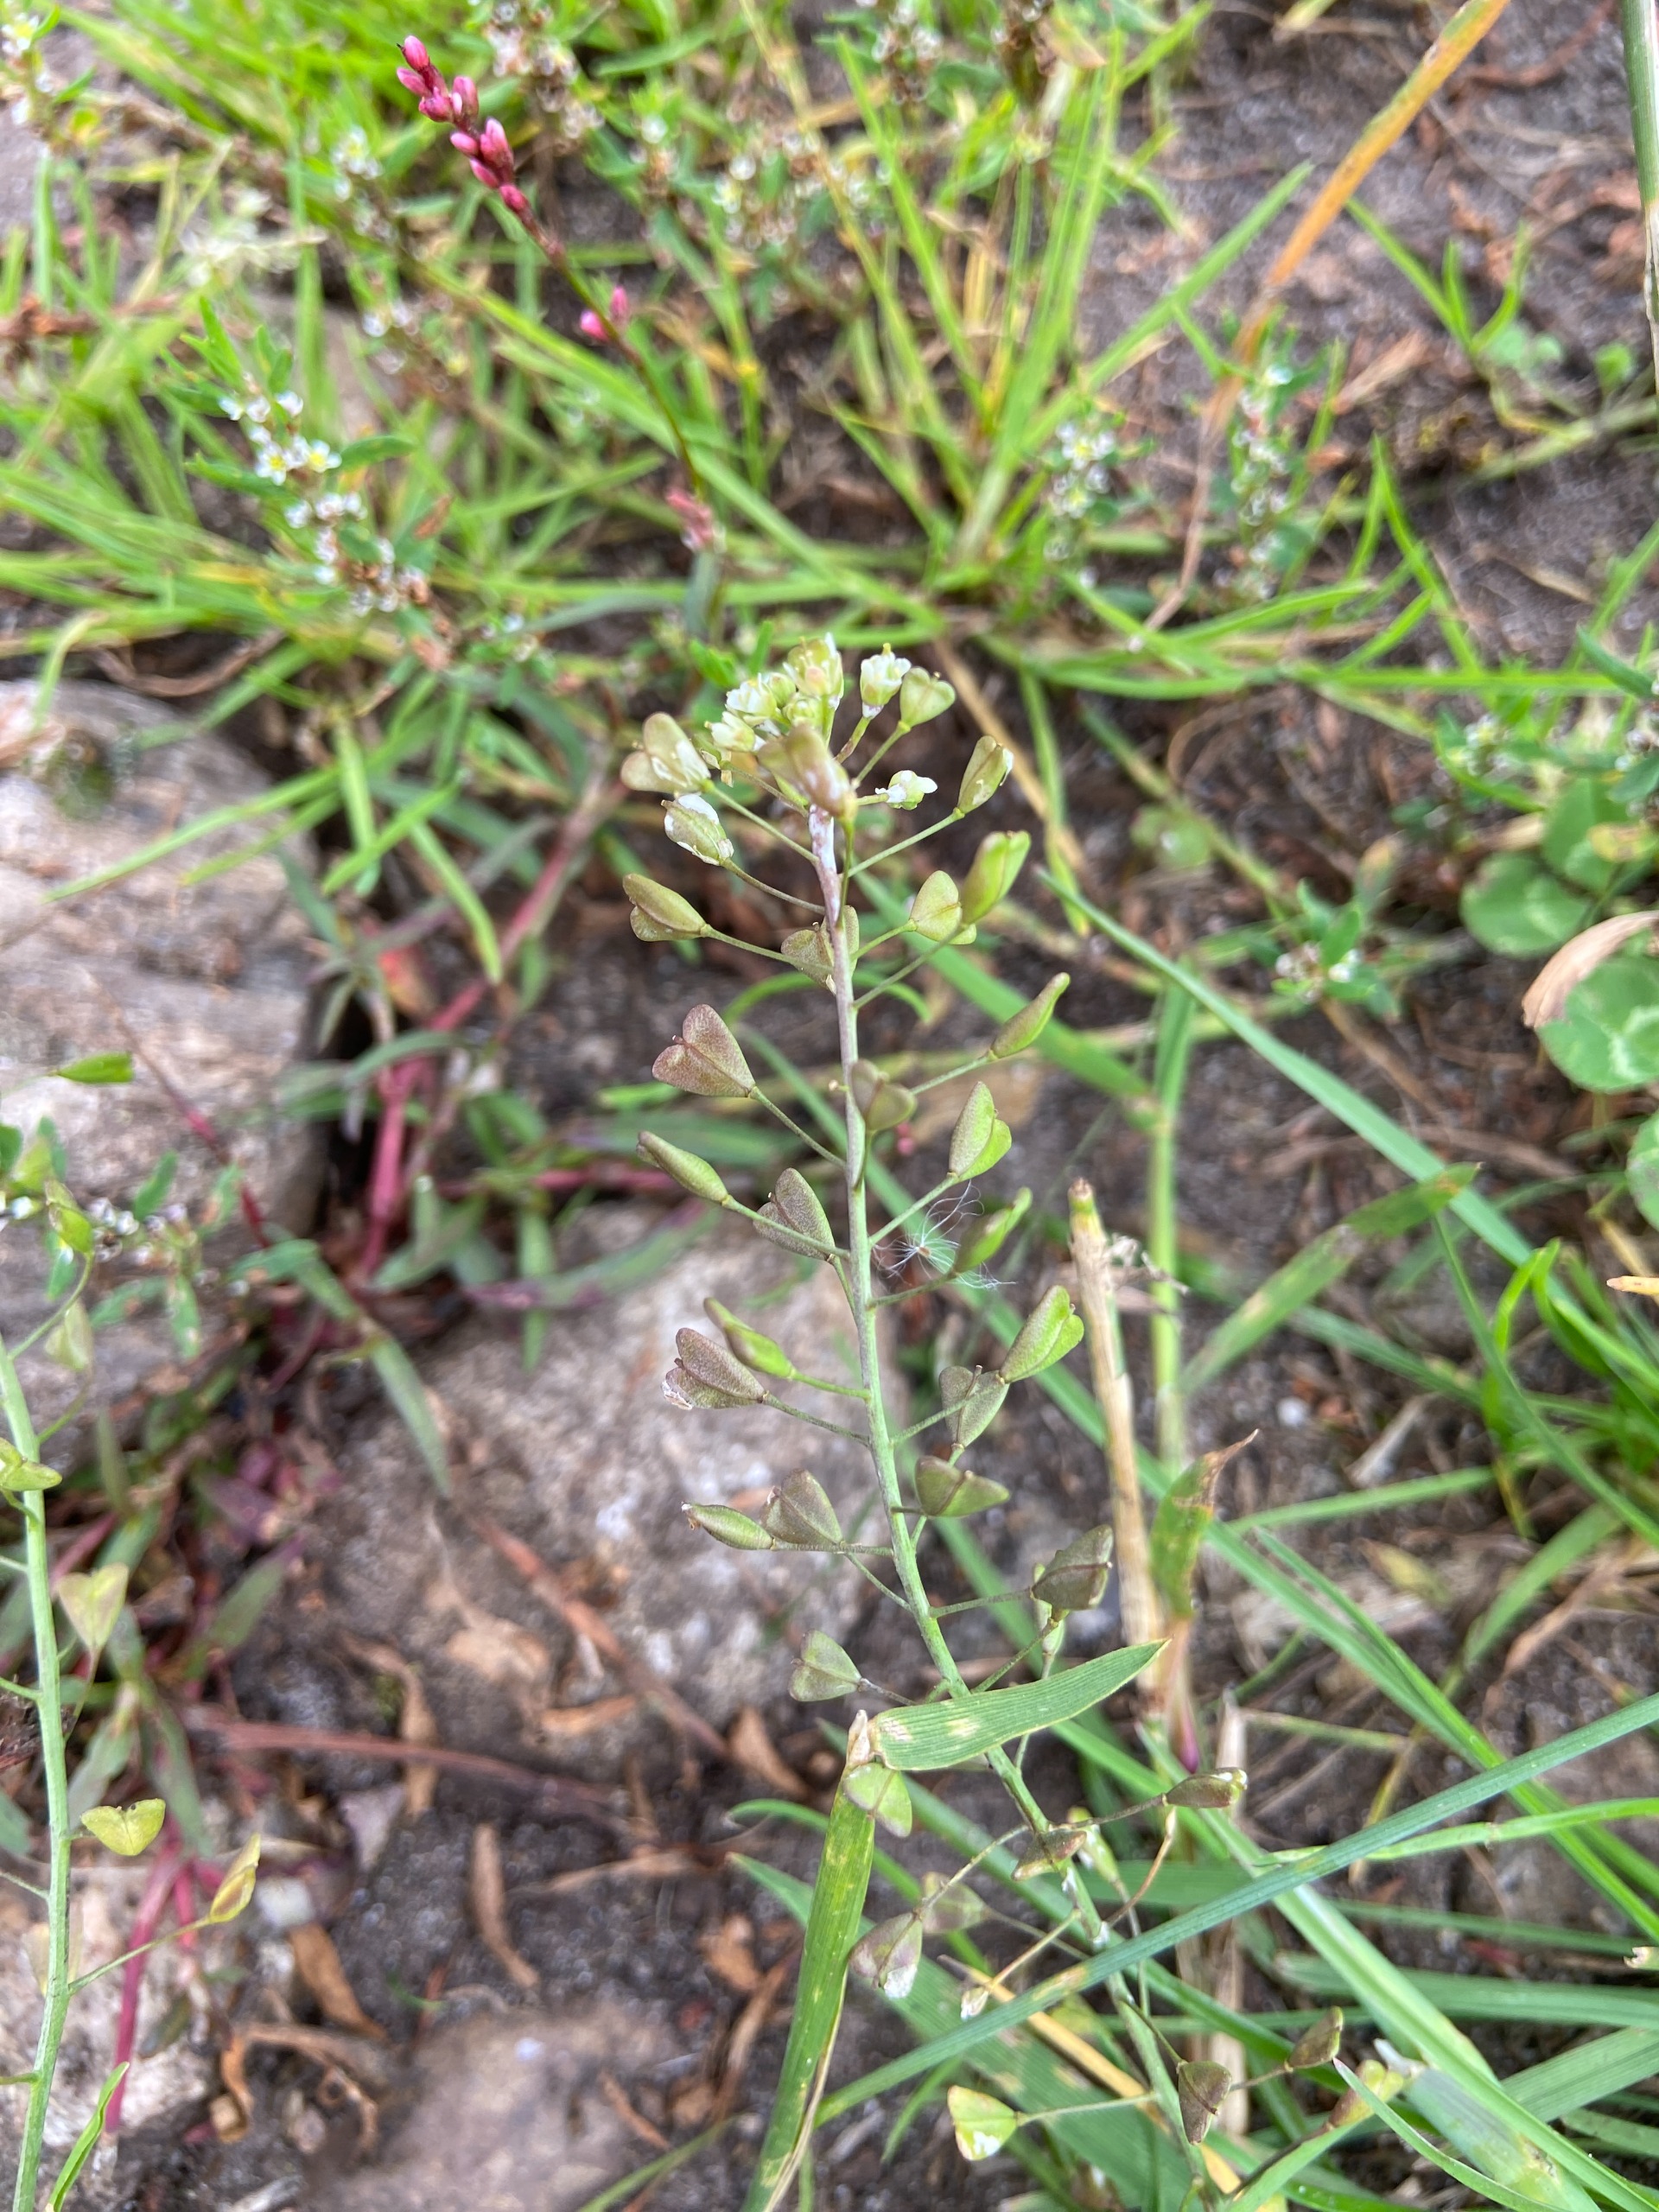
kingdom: Plantae
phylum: Tracheophyta
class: Magnoliopsida
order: Brassicales
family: Brassicaceae
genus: Capsella
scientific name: Capsella bursa-pastoris
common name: Hyrdetaske
